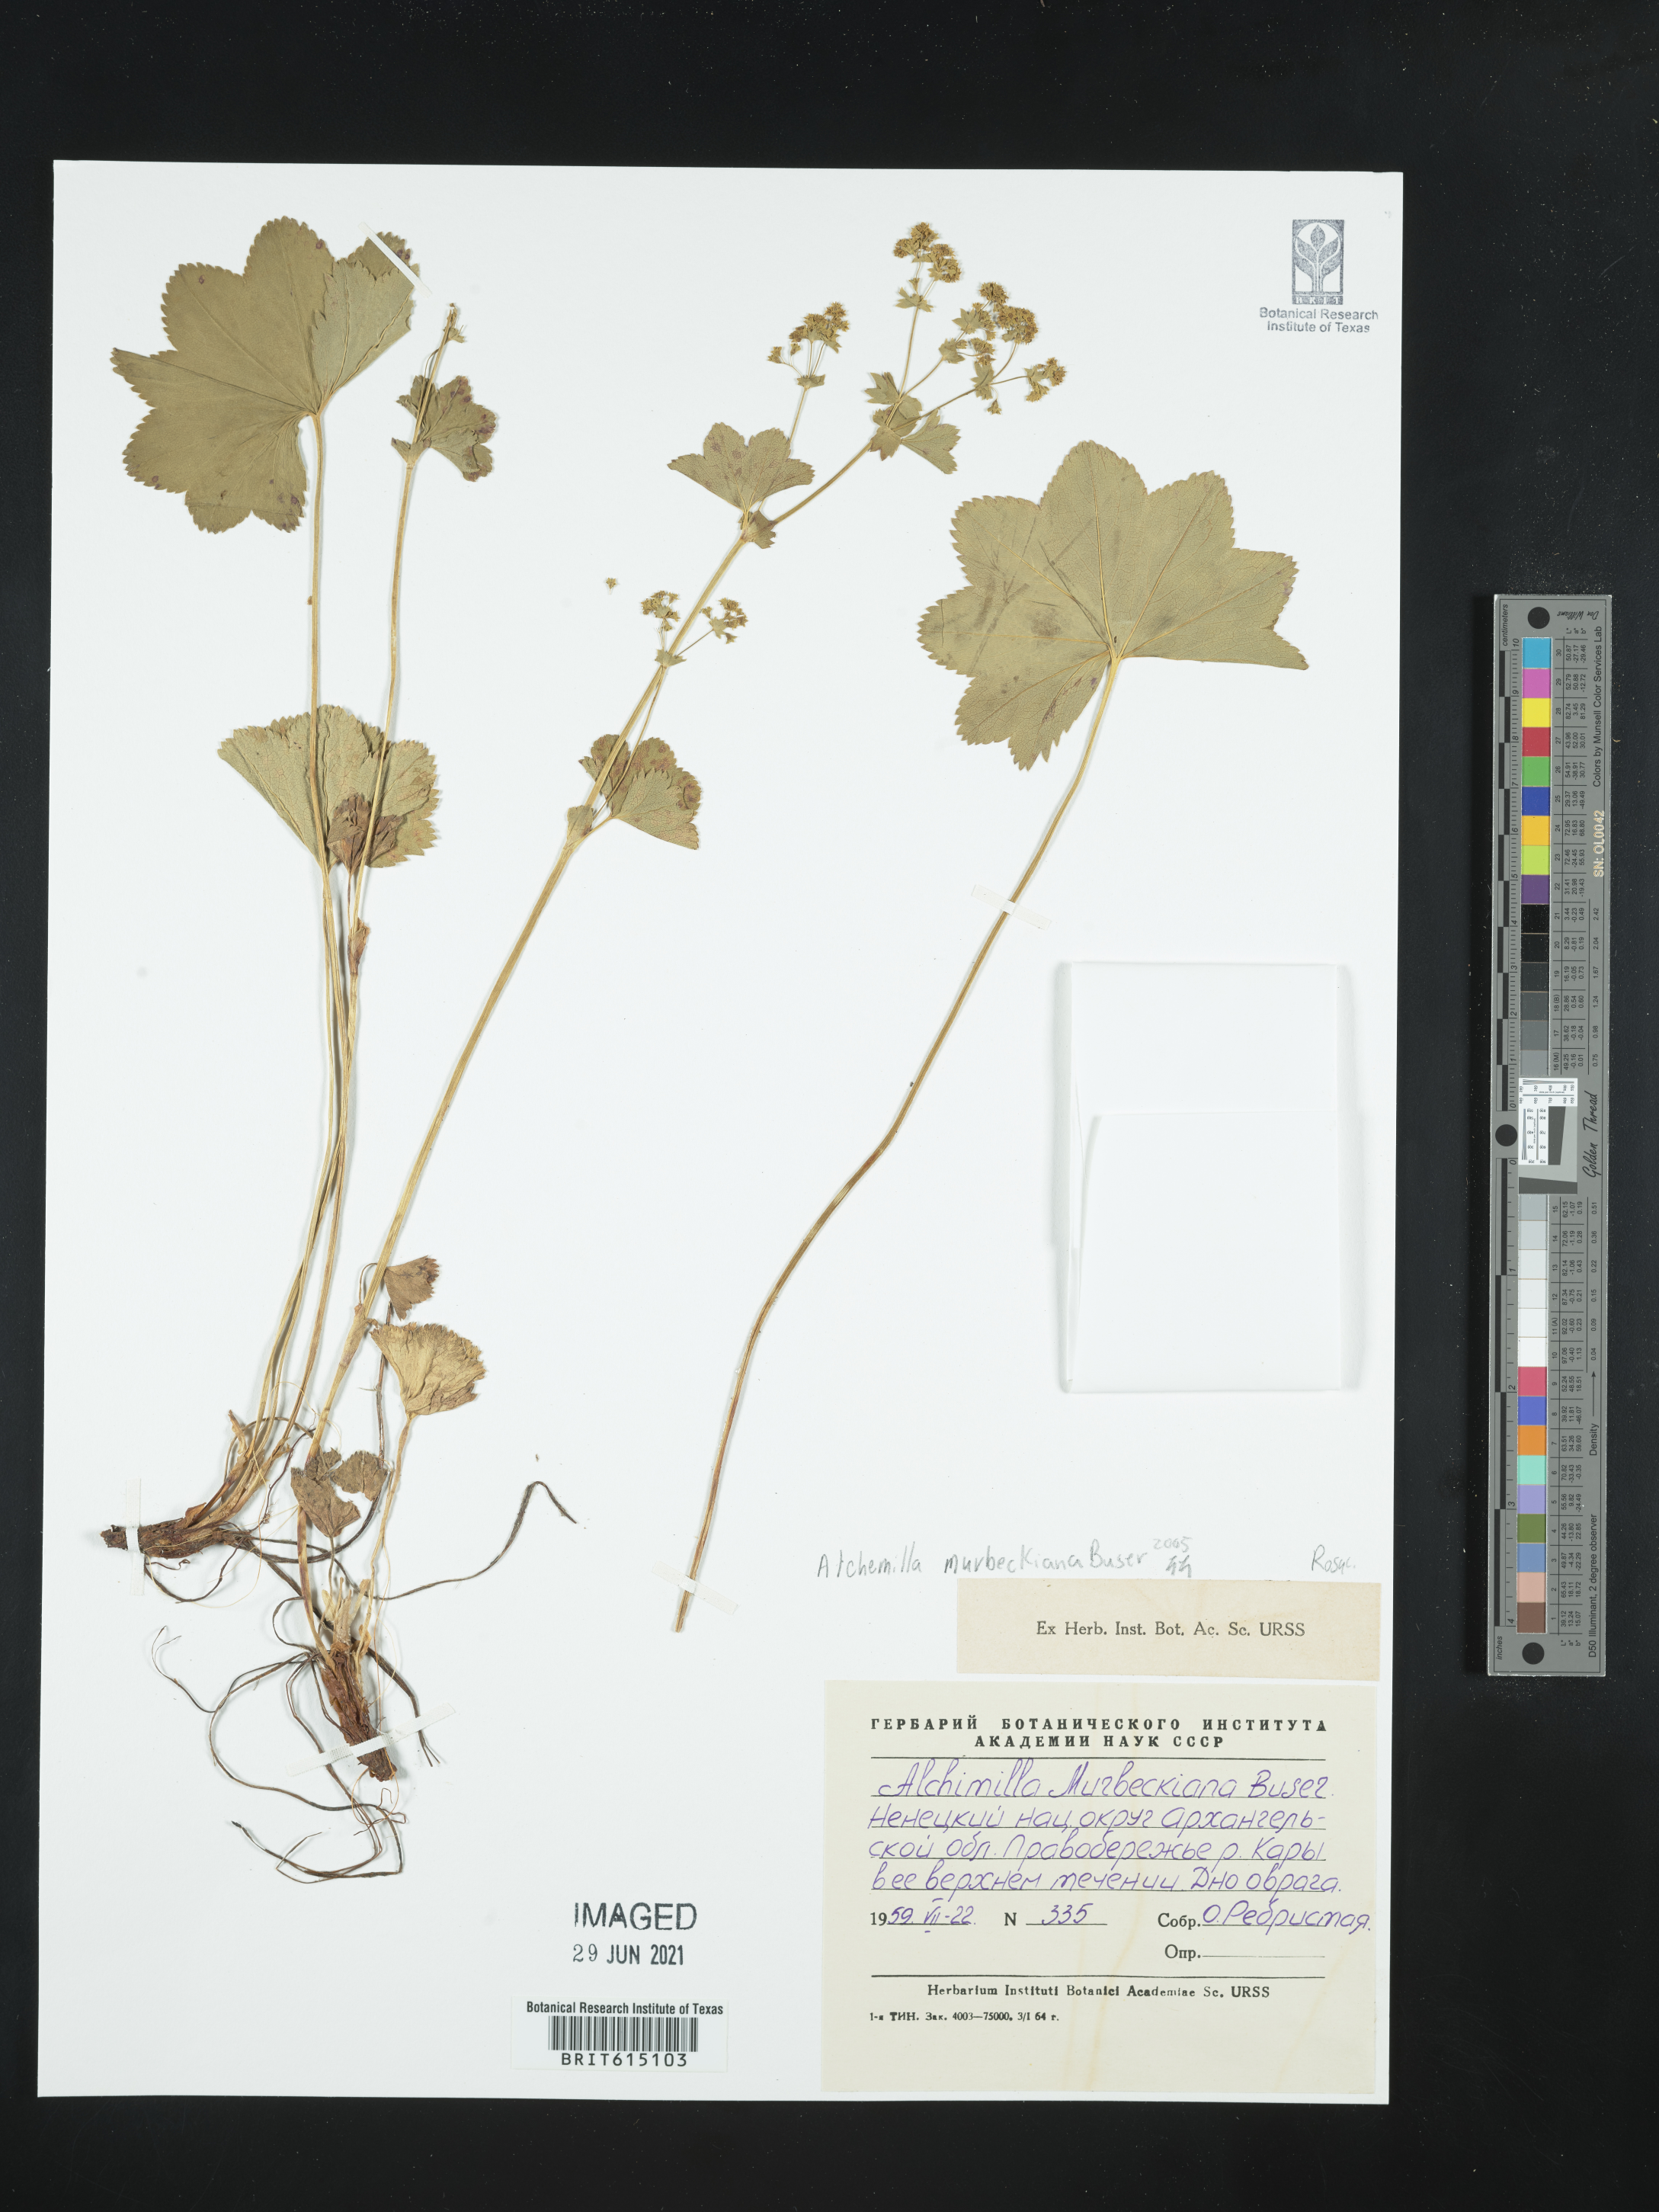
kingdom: Plantae
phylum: Tracheophyta
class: Magnoliopsida
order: Rosales
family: Rosaceae
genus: Alchemilla
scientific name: Alchemilla murbeckiana
